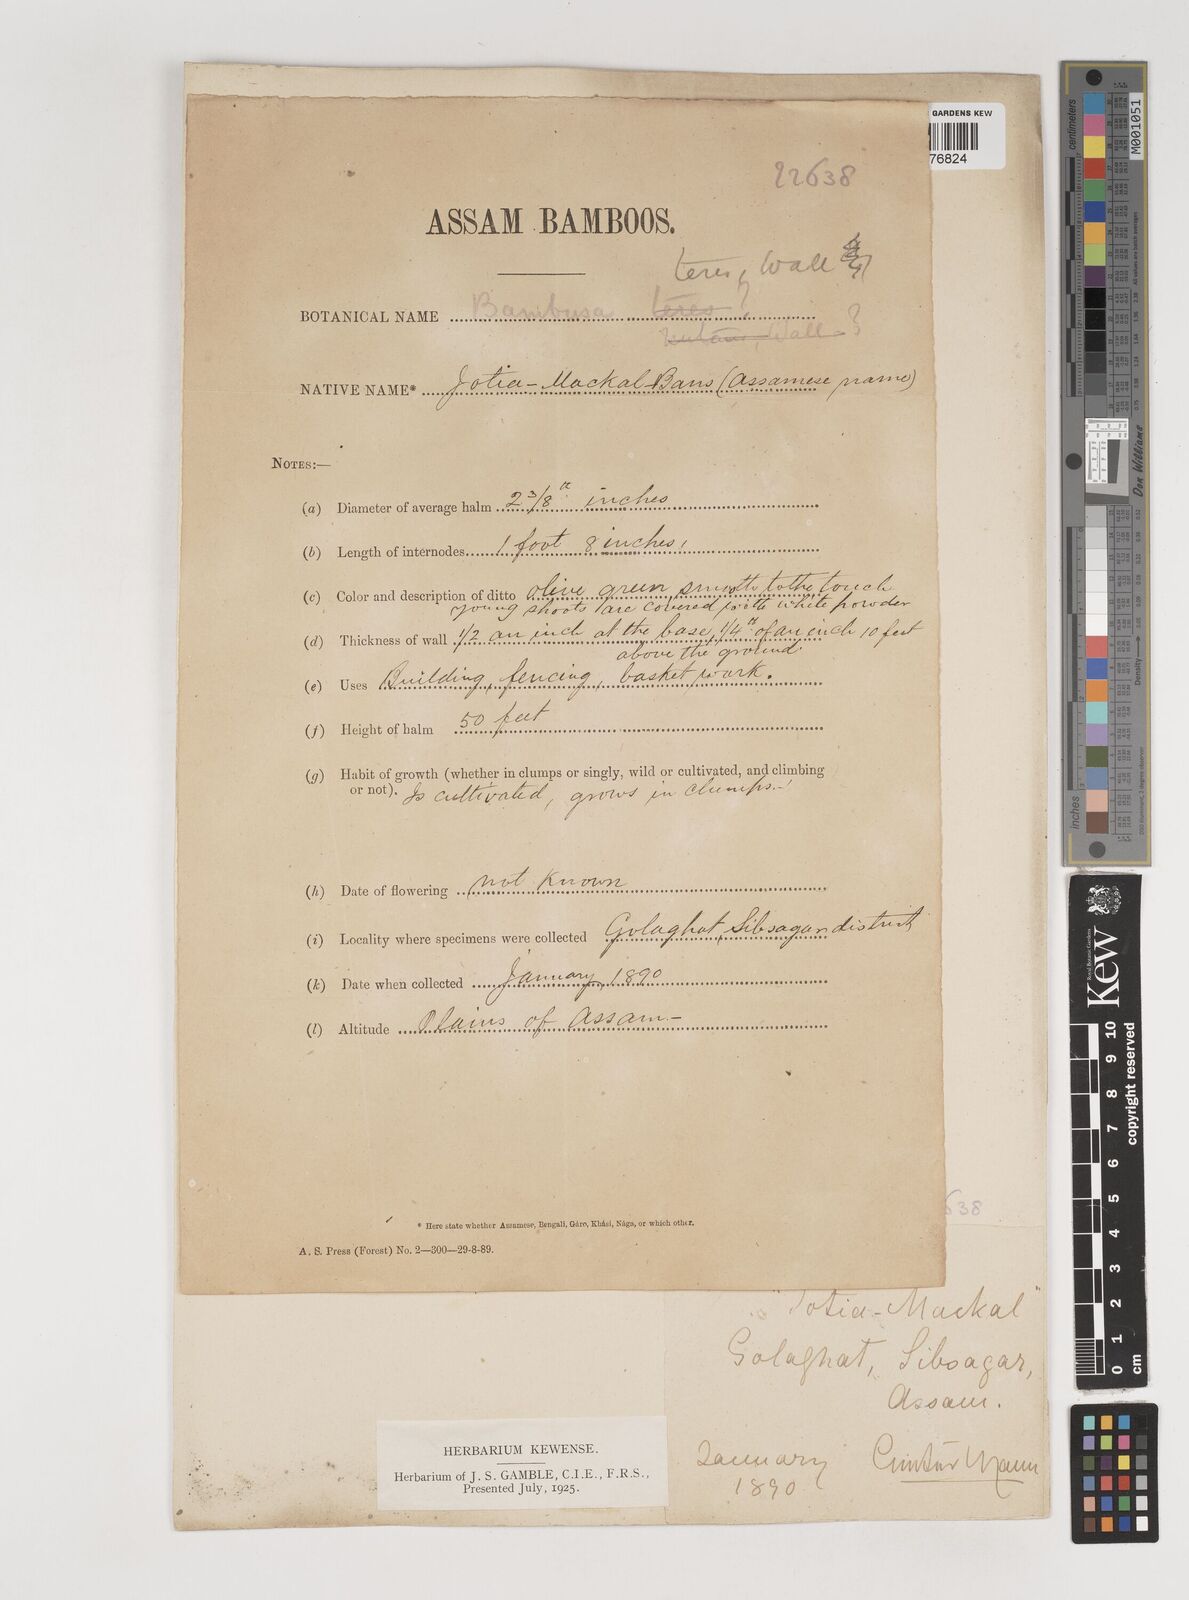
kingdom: Plantae
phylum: Tracheophyta
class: Liliopsida
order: Poales
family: Poaceae
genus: Bambusa
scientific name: Bambusa teres
